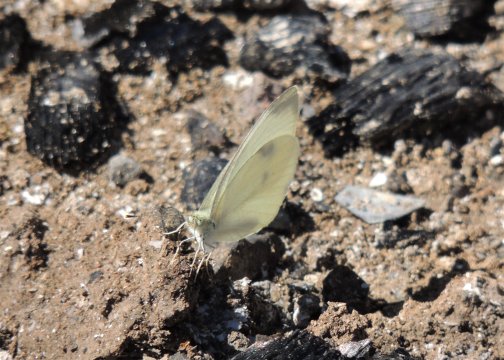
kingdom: Animalia
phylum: Arthropoda
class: Insecta
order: Lepidoptera
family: Pieridae
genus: Pieris
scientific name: Pieris rapae
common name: Cabbage White
